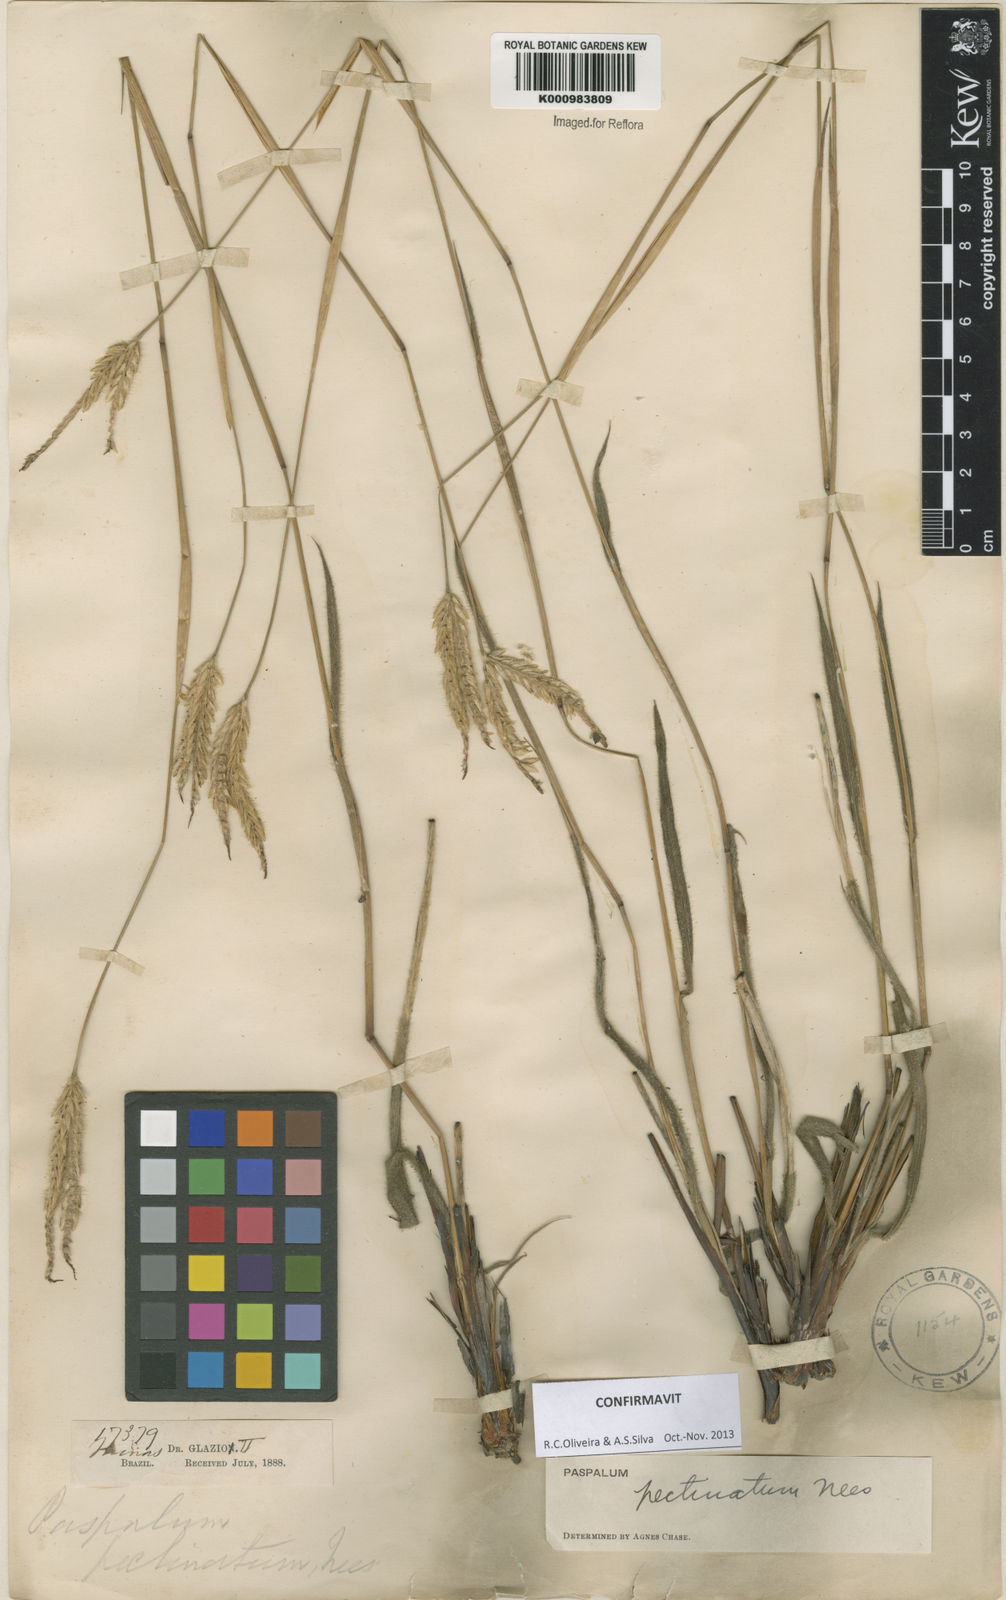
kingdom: Plantae
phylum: Tracheophyta
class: Liliopsida
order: Poales
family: Poaceae
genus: Paspalum
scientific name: Paspalum
